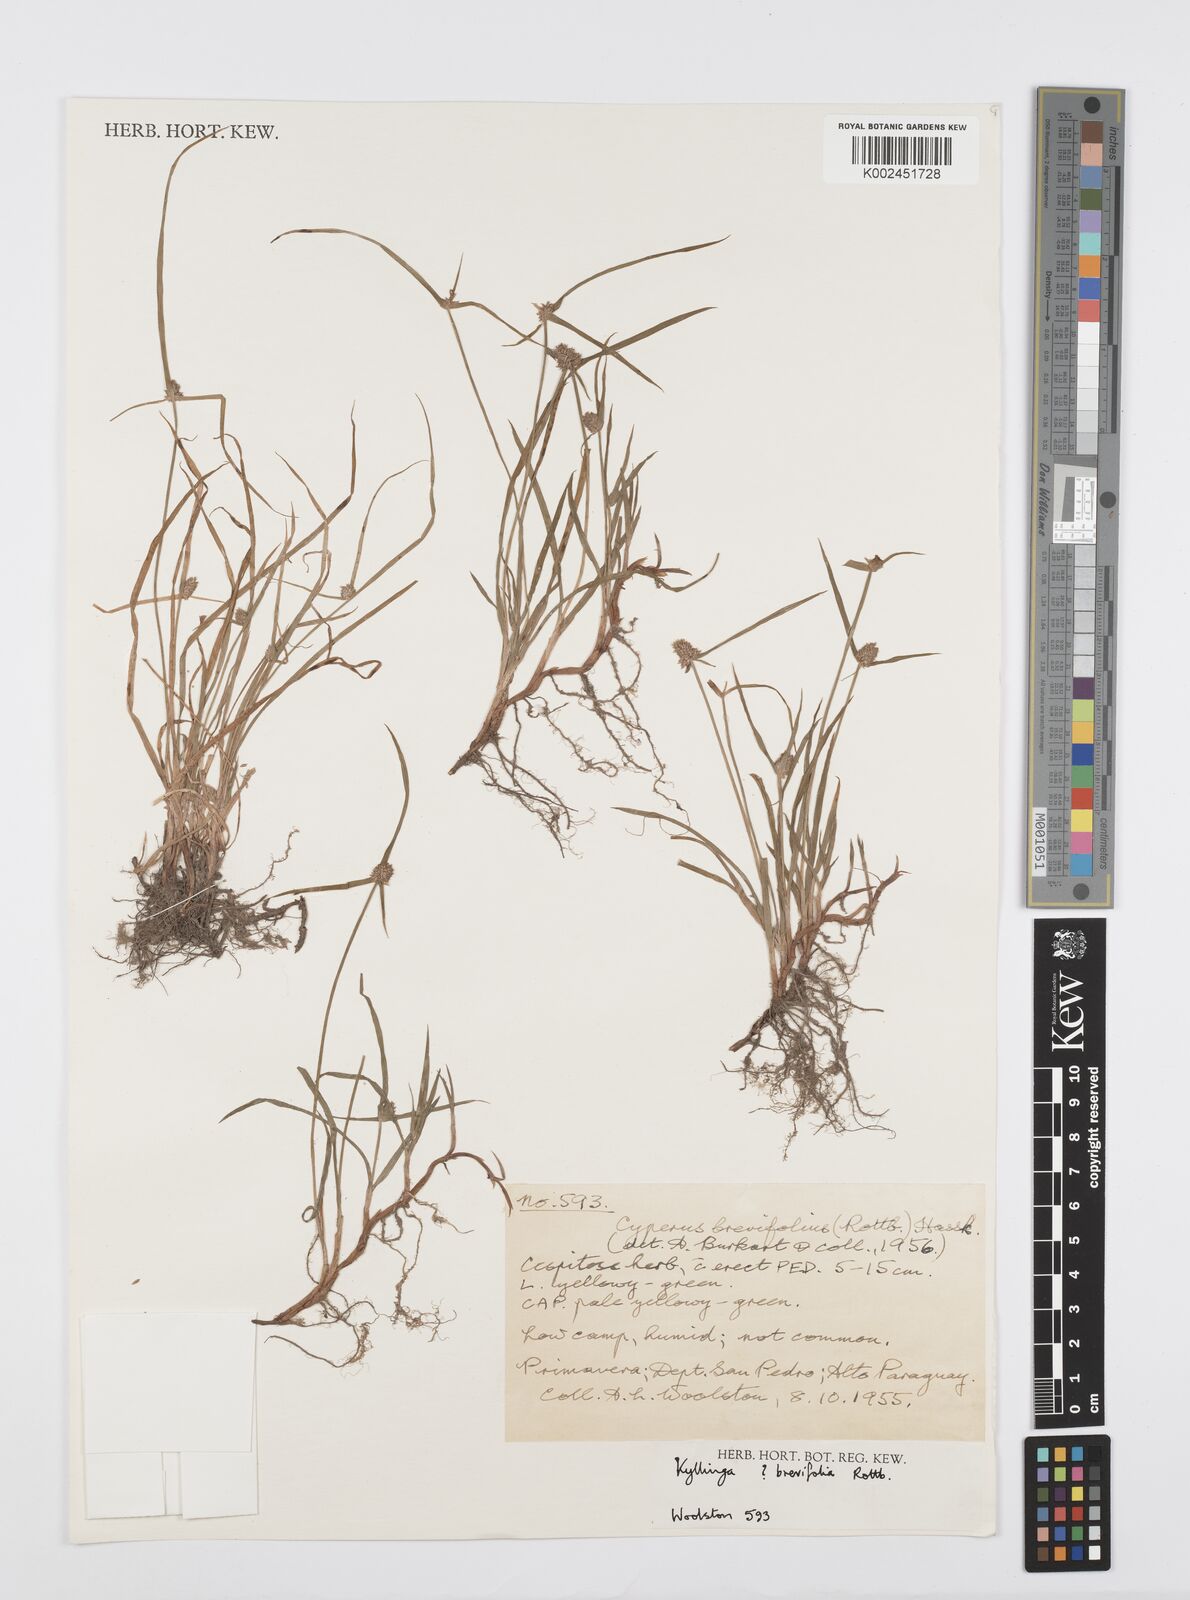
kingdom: Plantae
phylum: Tracheophyta
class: Liliopsida
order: Poales
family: Cyperaceae
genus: Cyperus
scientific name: Cyperus brevifolius
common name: Globe kyllinga
